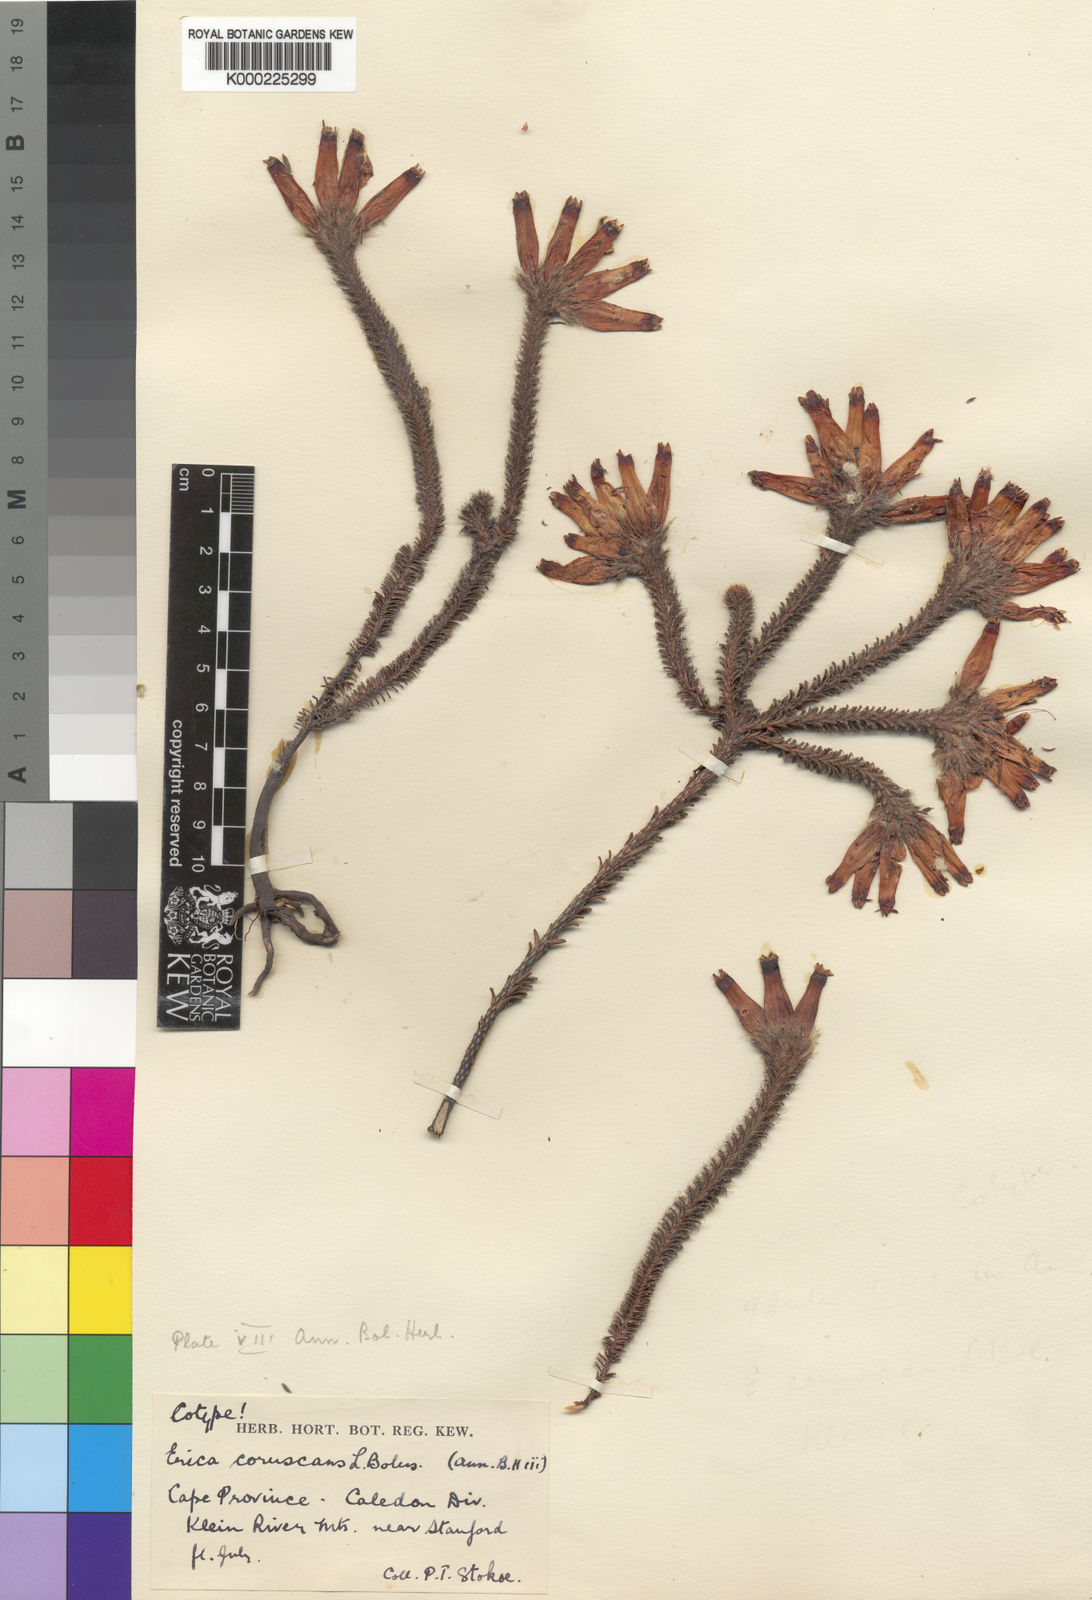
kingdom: Plantae
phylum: Tracheophyta
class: Magnoliopsida
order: Ericales
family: Ericaceae
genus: Erica
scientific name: Erica aristata
